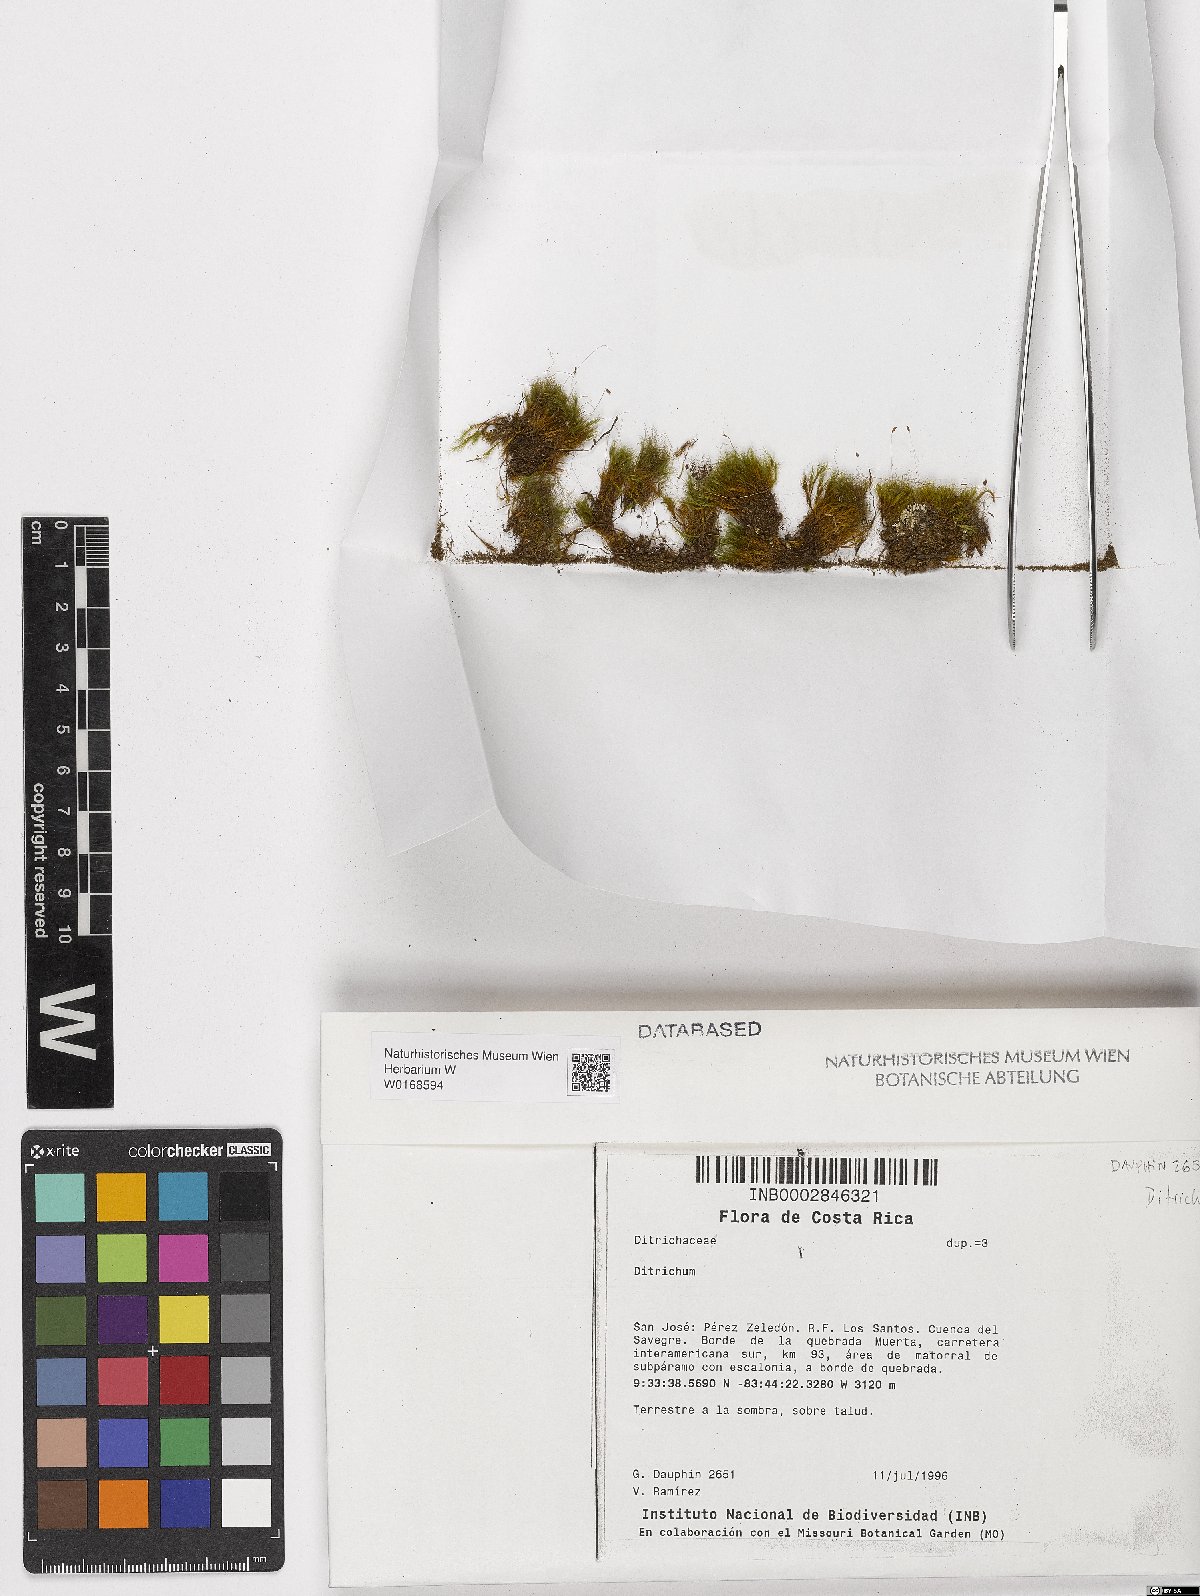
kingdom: Plantae
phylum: Bryophyta
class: Bryopsida
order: Dicranales
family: Ditrichaceae
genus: Ditrichum
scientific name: Ditrichum
